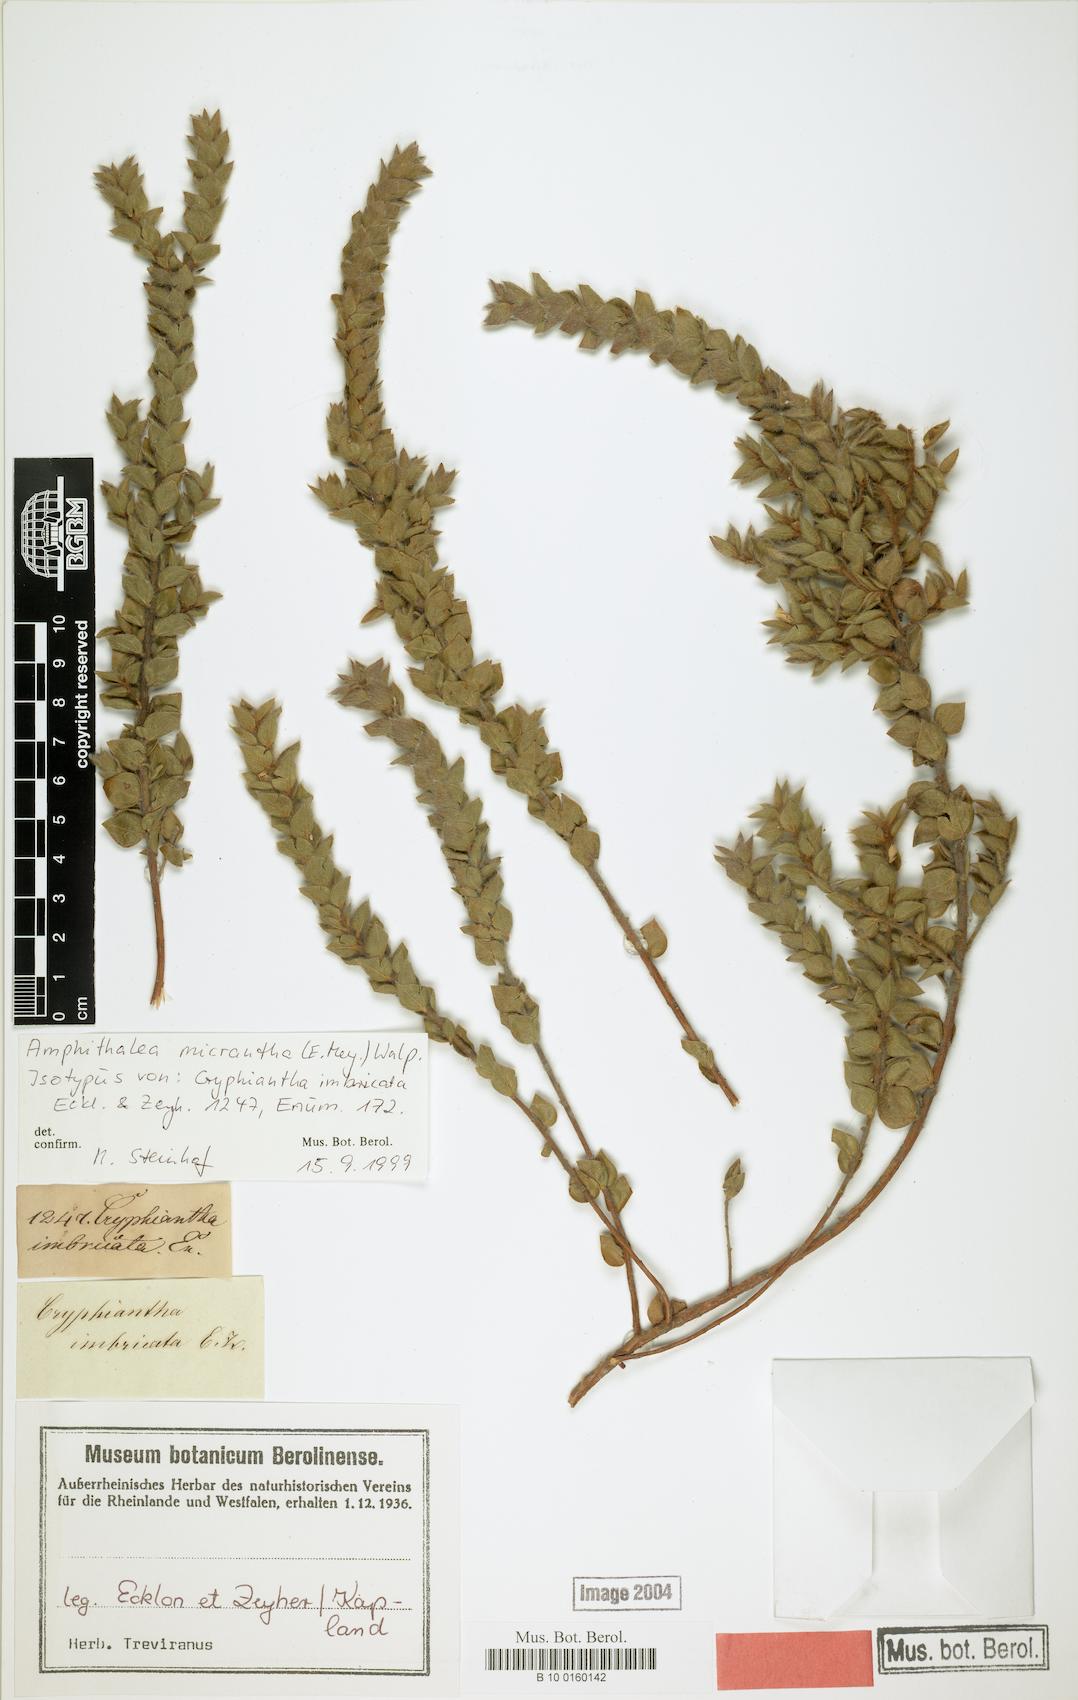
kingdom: Plantae
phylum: Tracheophyta
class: Magnoliopsida
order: Fabales
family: Fabaceae
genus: Amphithalea
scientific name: Amphithalea micrantha
